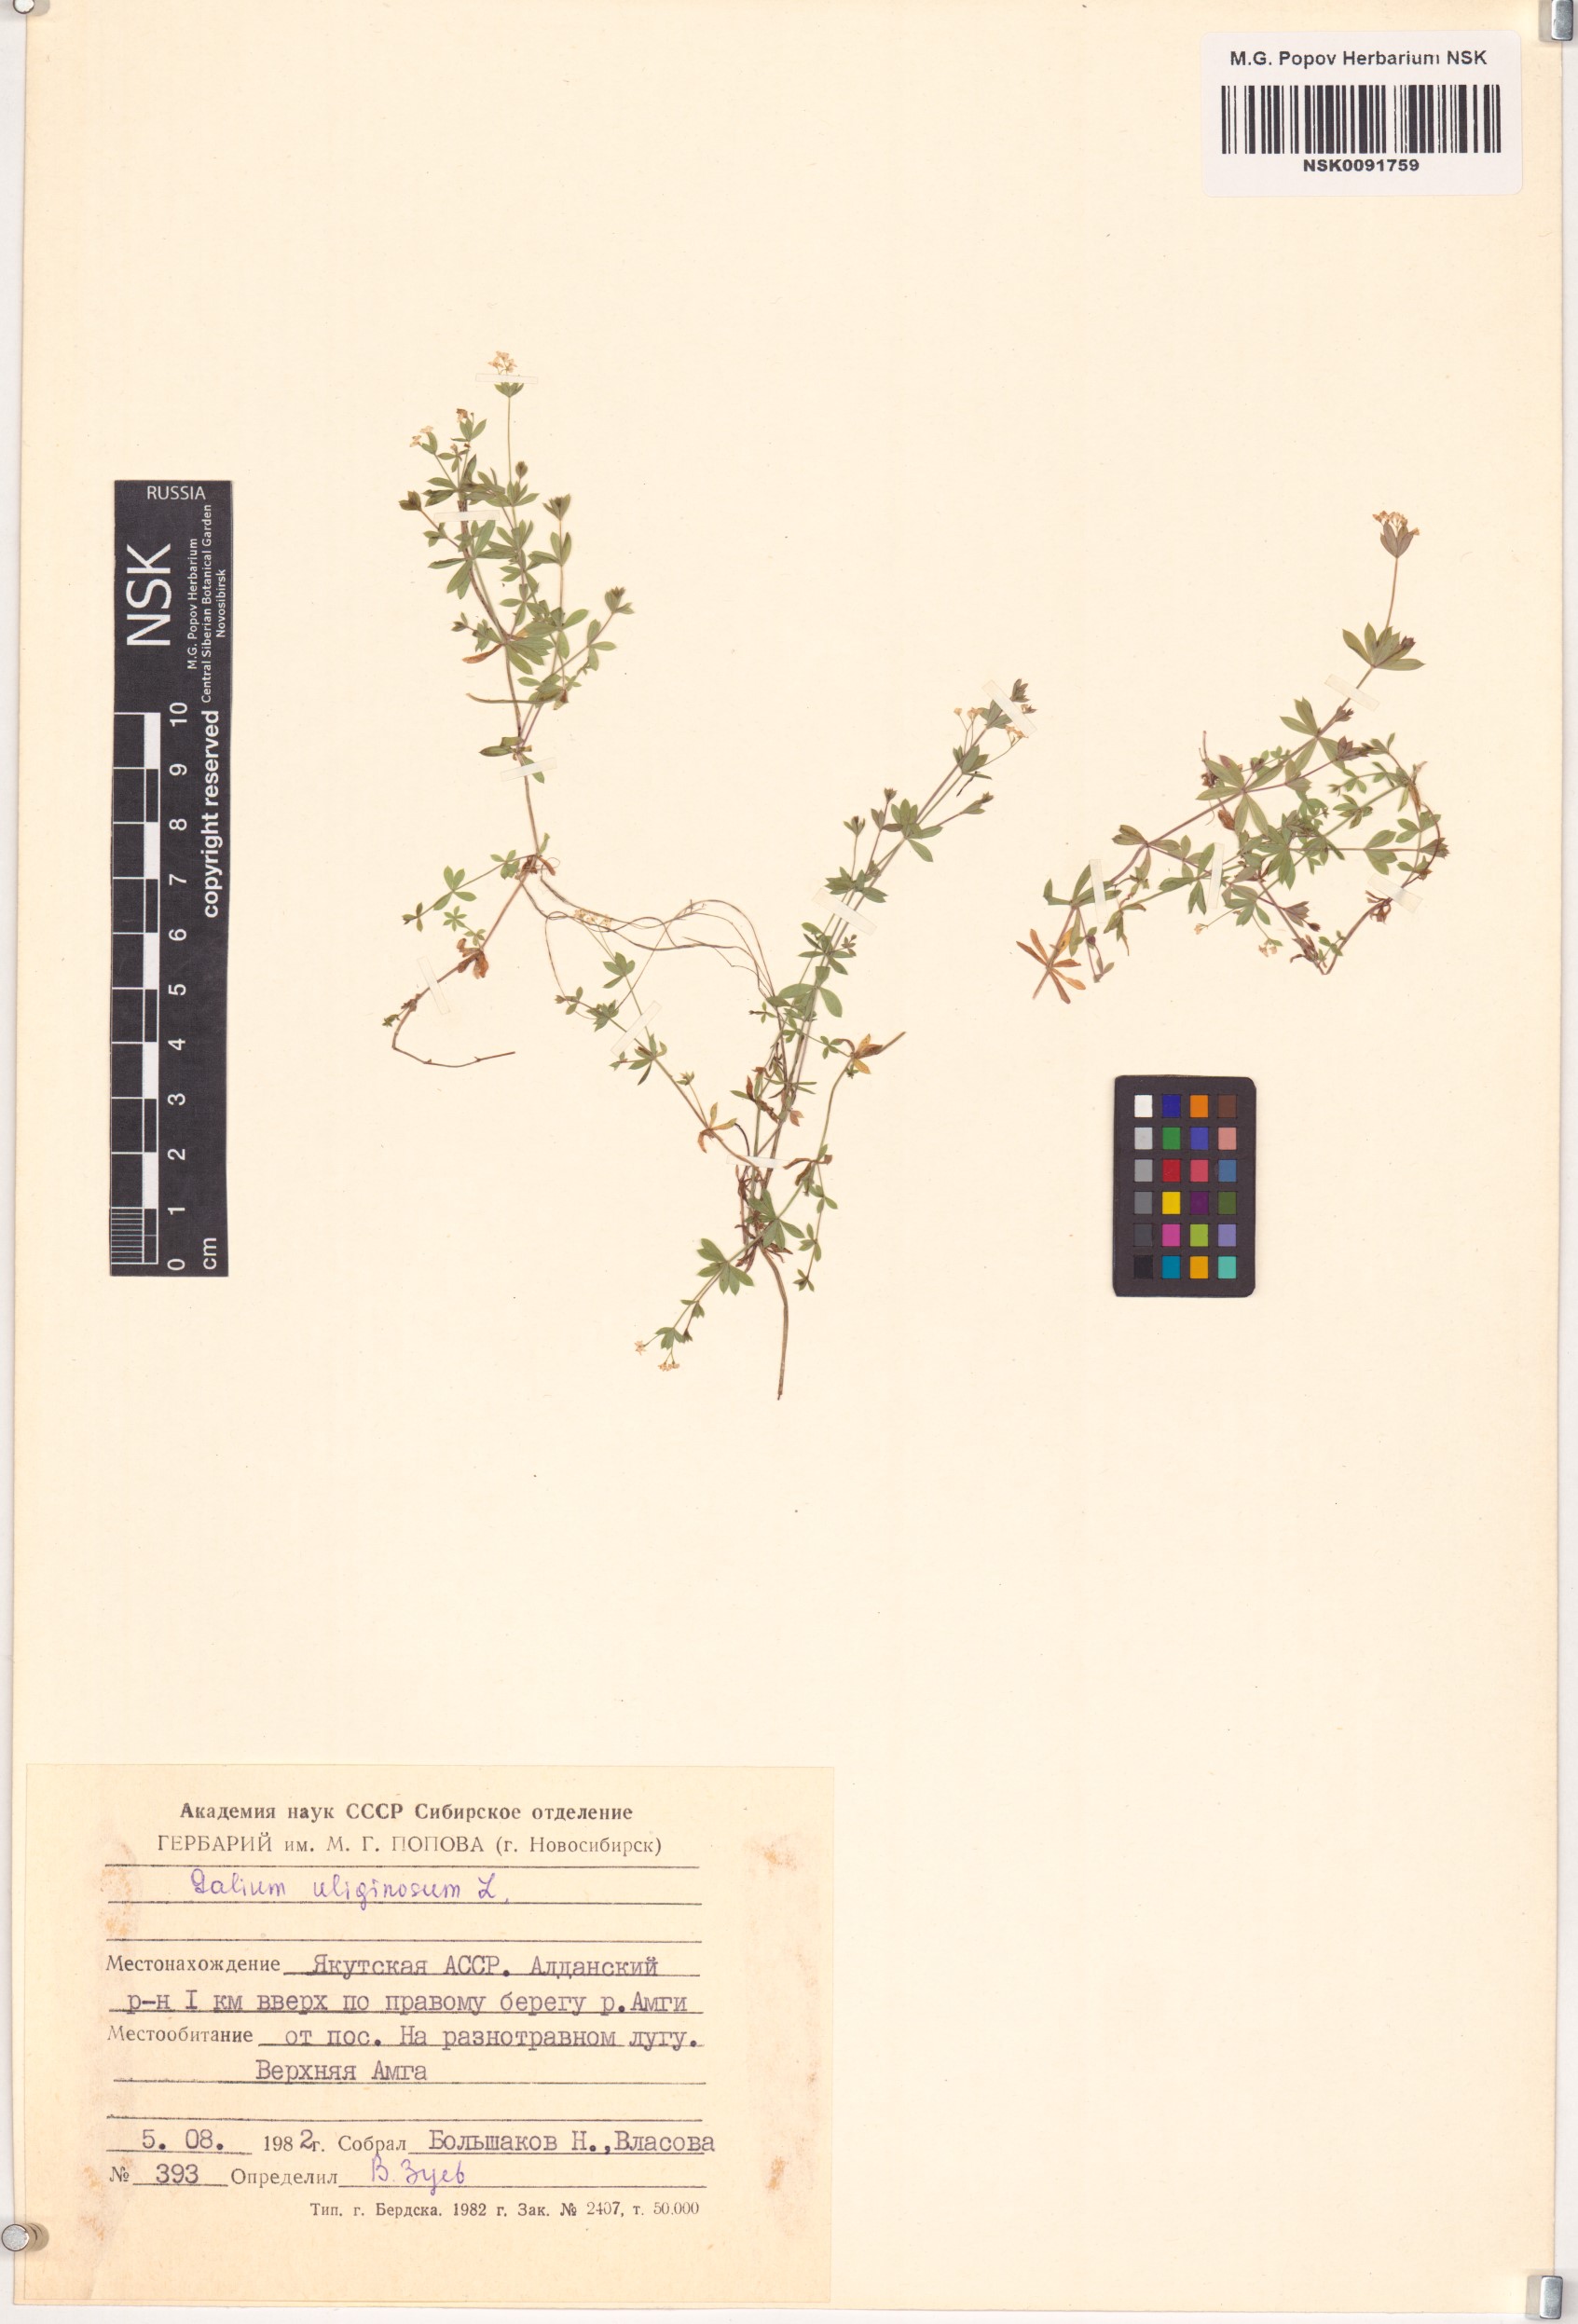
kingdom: Plantae
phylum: Tracheophyta
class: Magnoliopsida
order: Gentianales
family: Rubiaceae
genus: Galium
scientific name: Galium uliginosum
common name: Fen bedstraw
